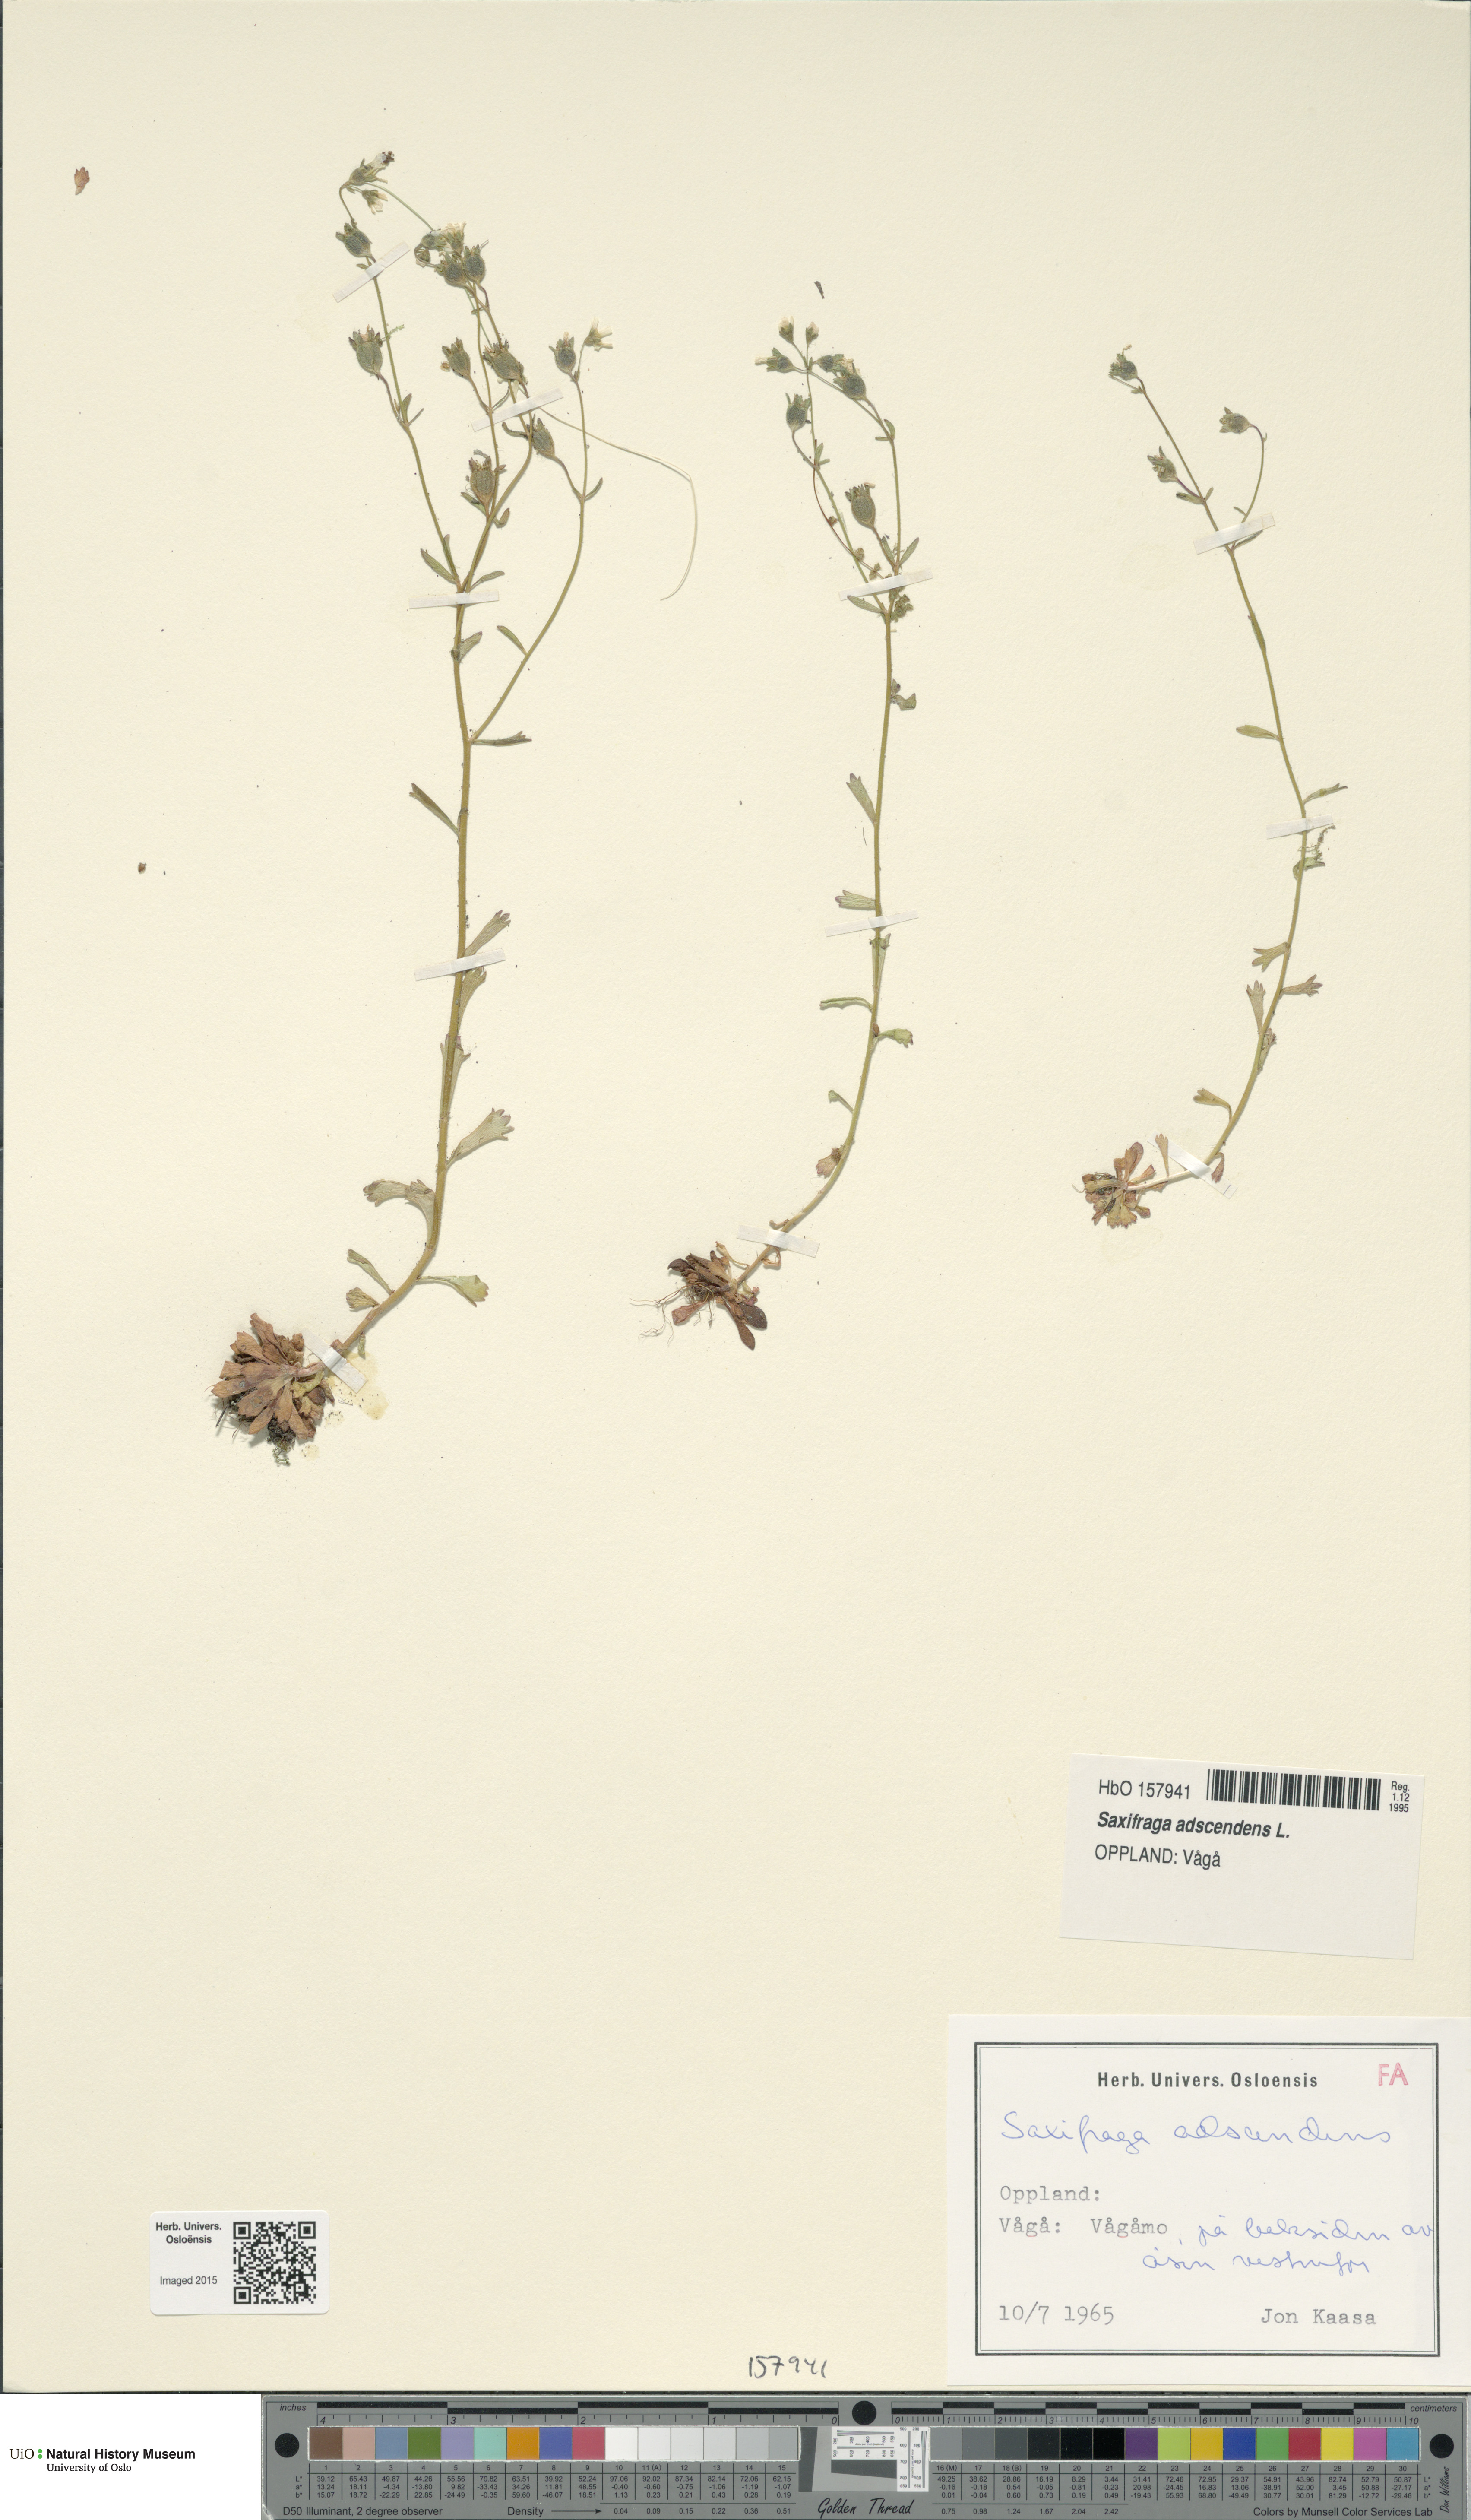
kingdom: Plantae
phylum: Tracheophyta
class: Magnoliopsida
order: Saxifragales
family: Saxifragaceae
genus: Saxifraga
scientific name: Saxifraga adscendens
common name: Ascending saxifrage
